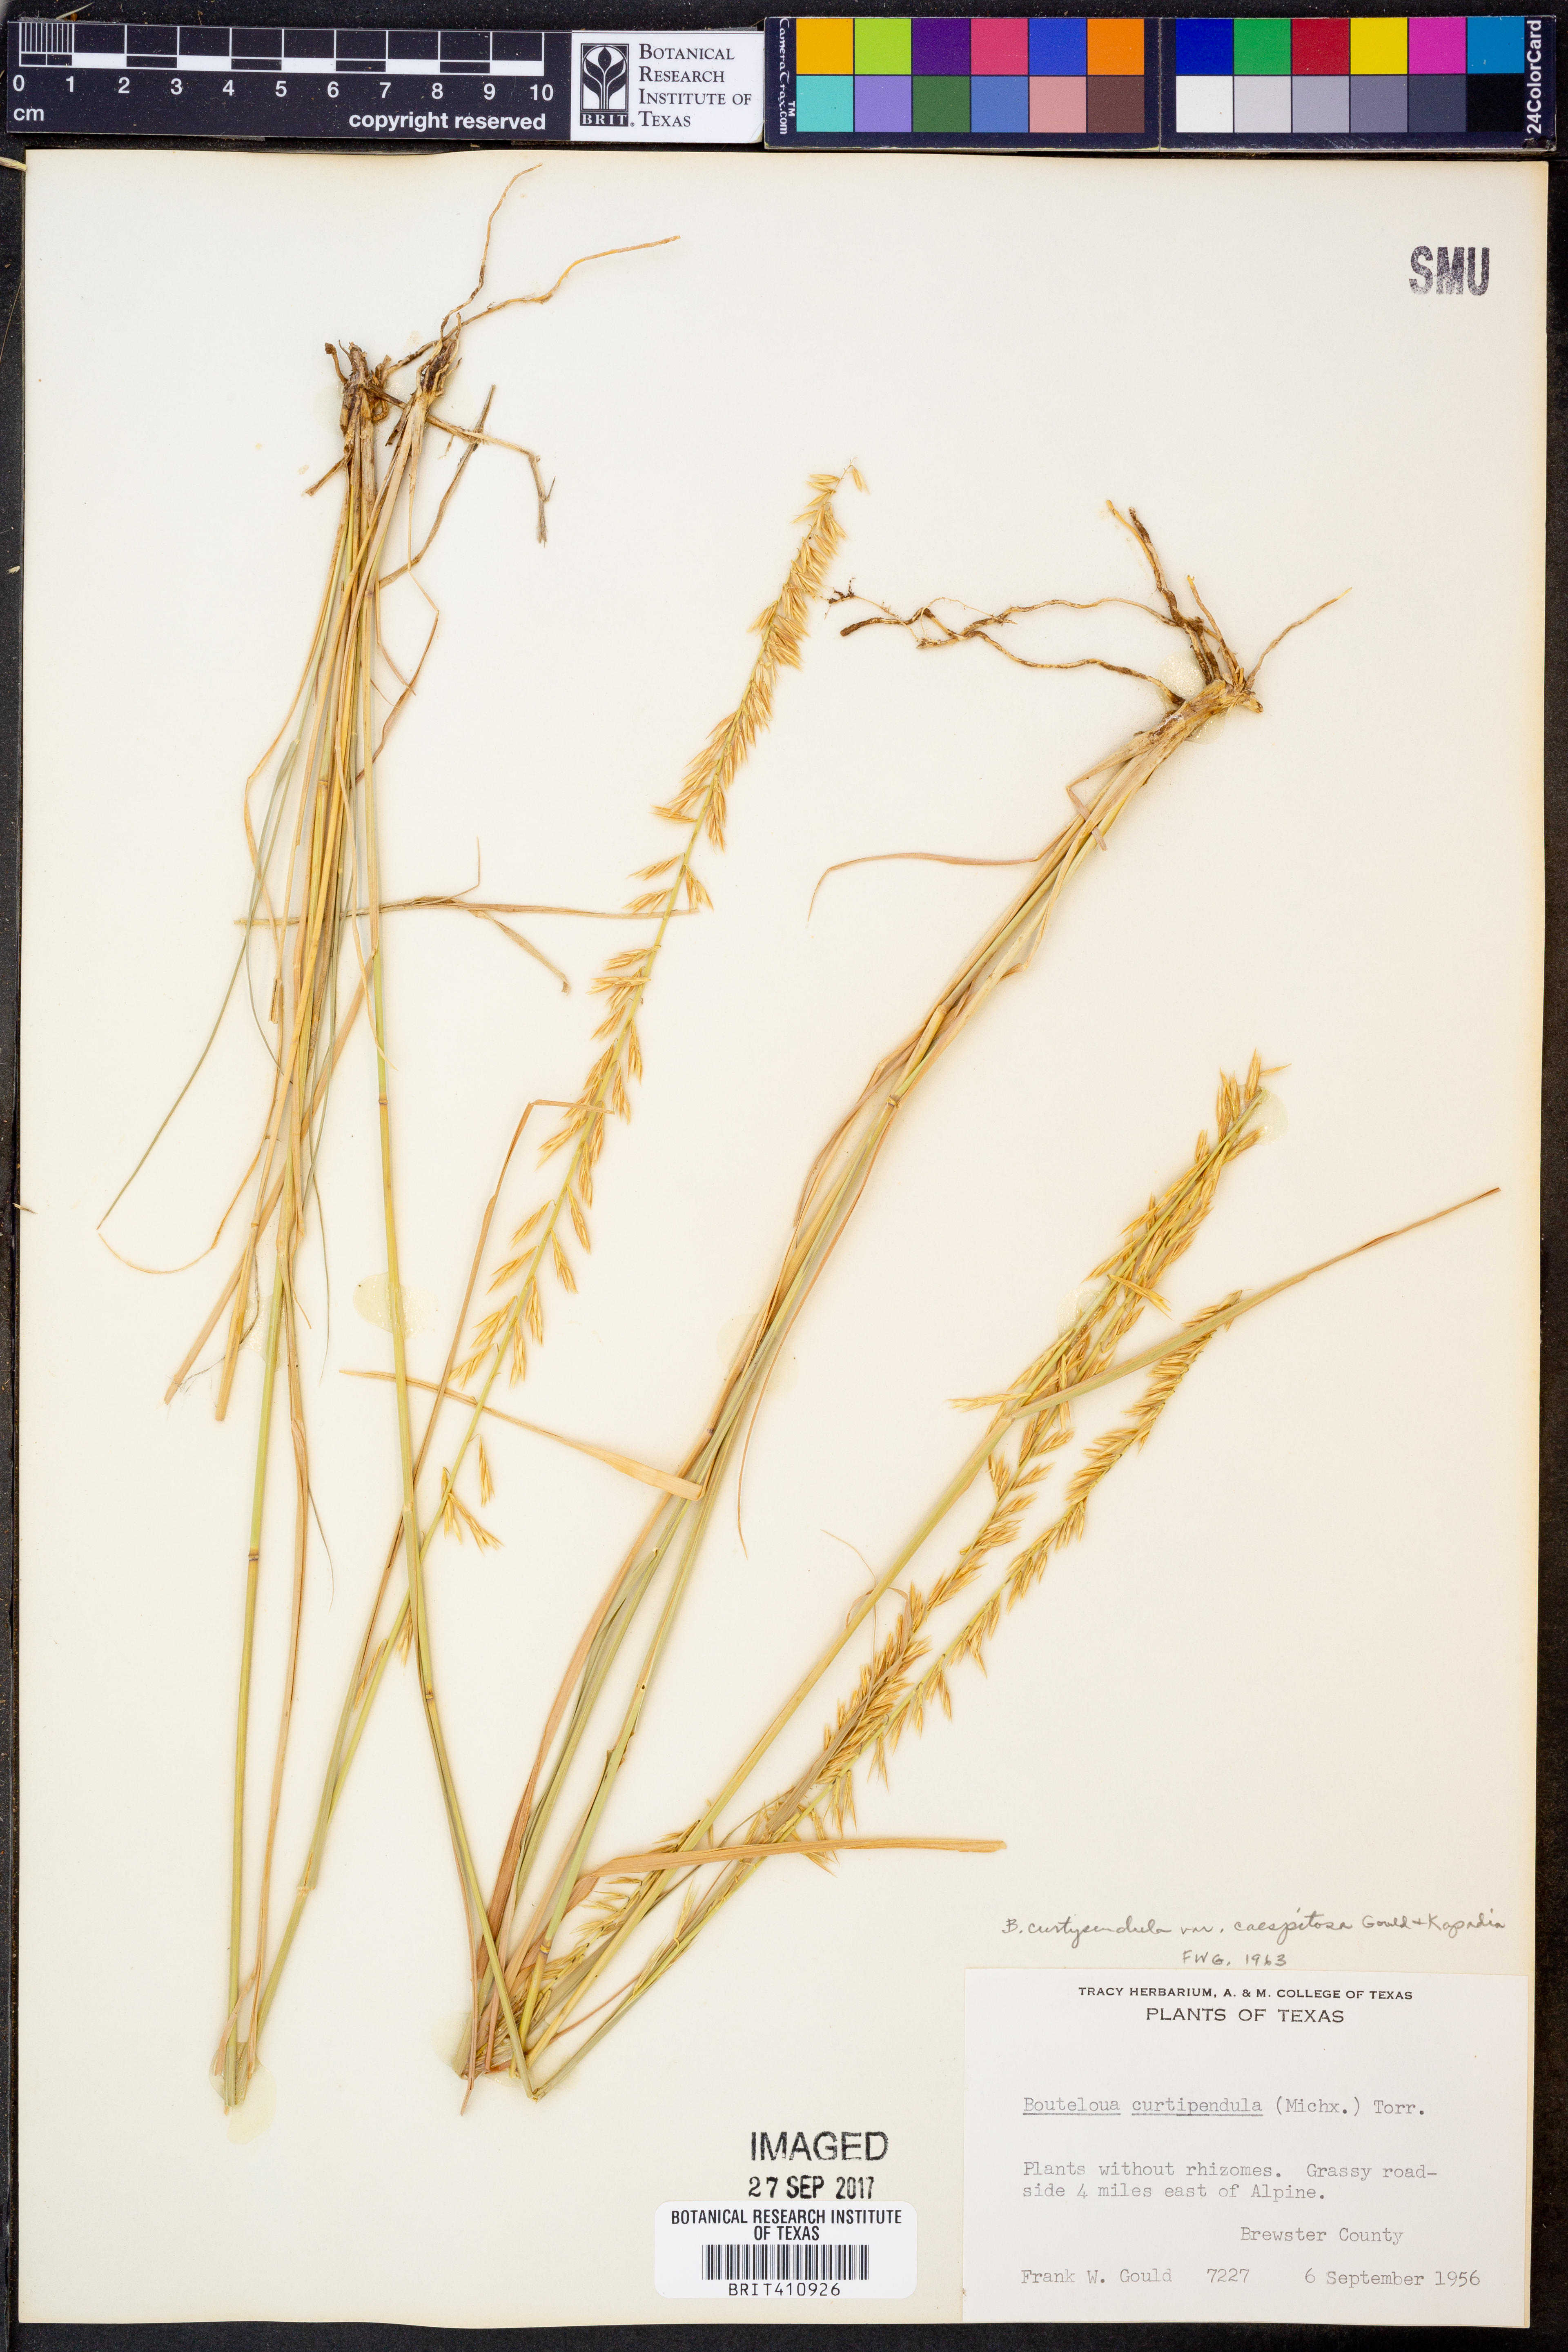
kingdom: Plantae
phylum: Tracheophyta
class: Liliopsida
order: Poales
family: Poaceae
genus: Bouteloua
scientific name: Bouteloua curtipendula
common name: Side-oats grama
